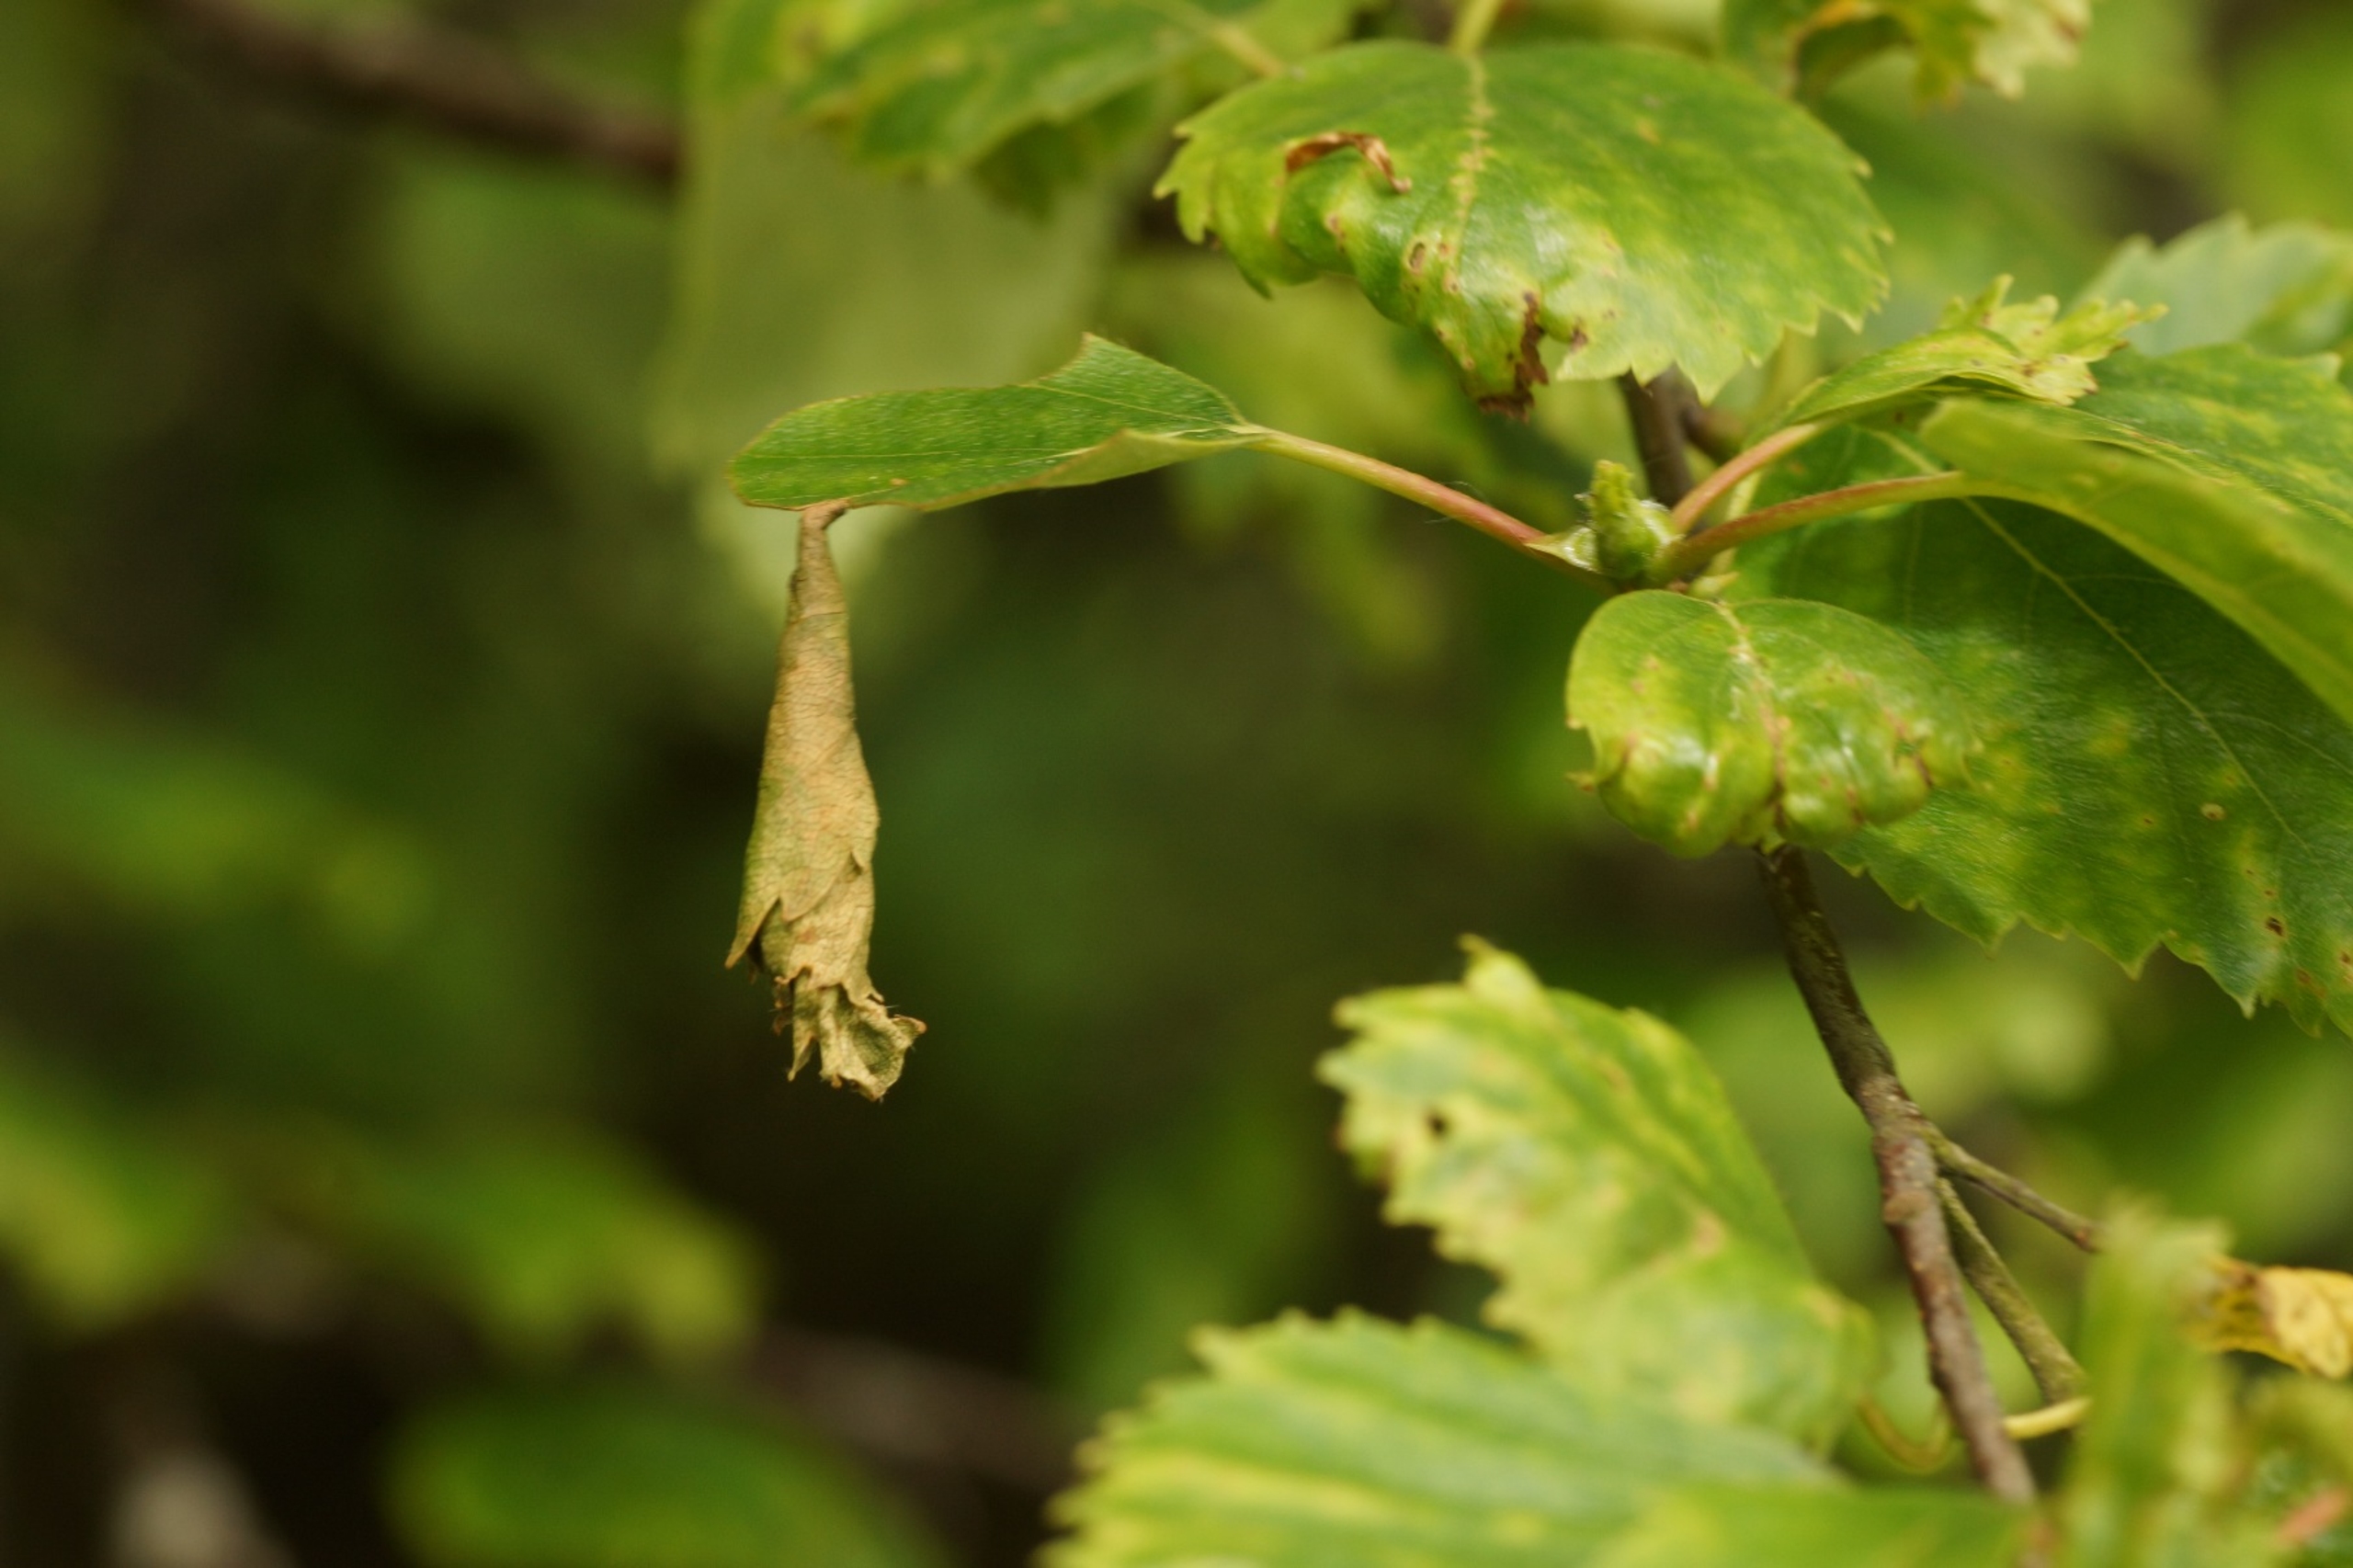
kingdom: Animalia
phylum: Arthropoda
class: Insecta
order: Coleoptera
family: Attelabidae
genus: Byctiscus
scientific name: Byctiscus betulae
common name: Birkebladruller
